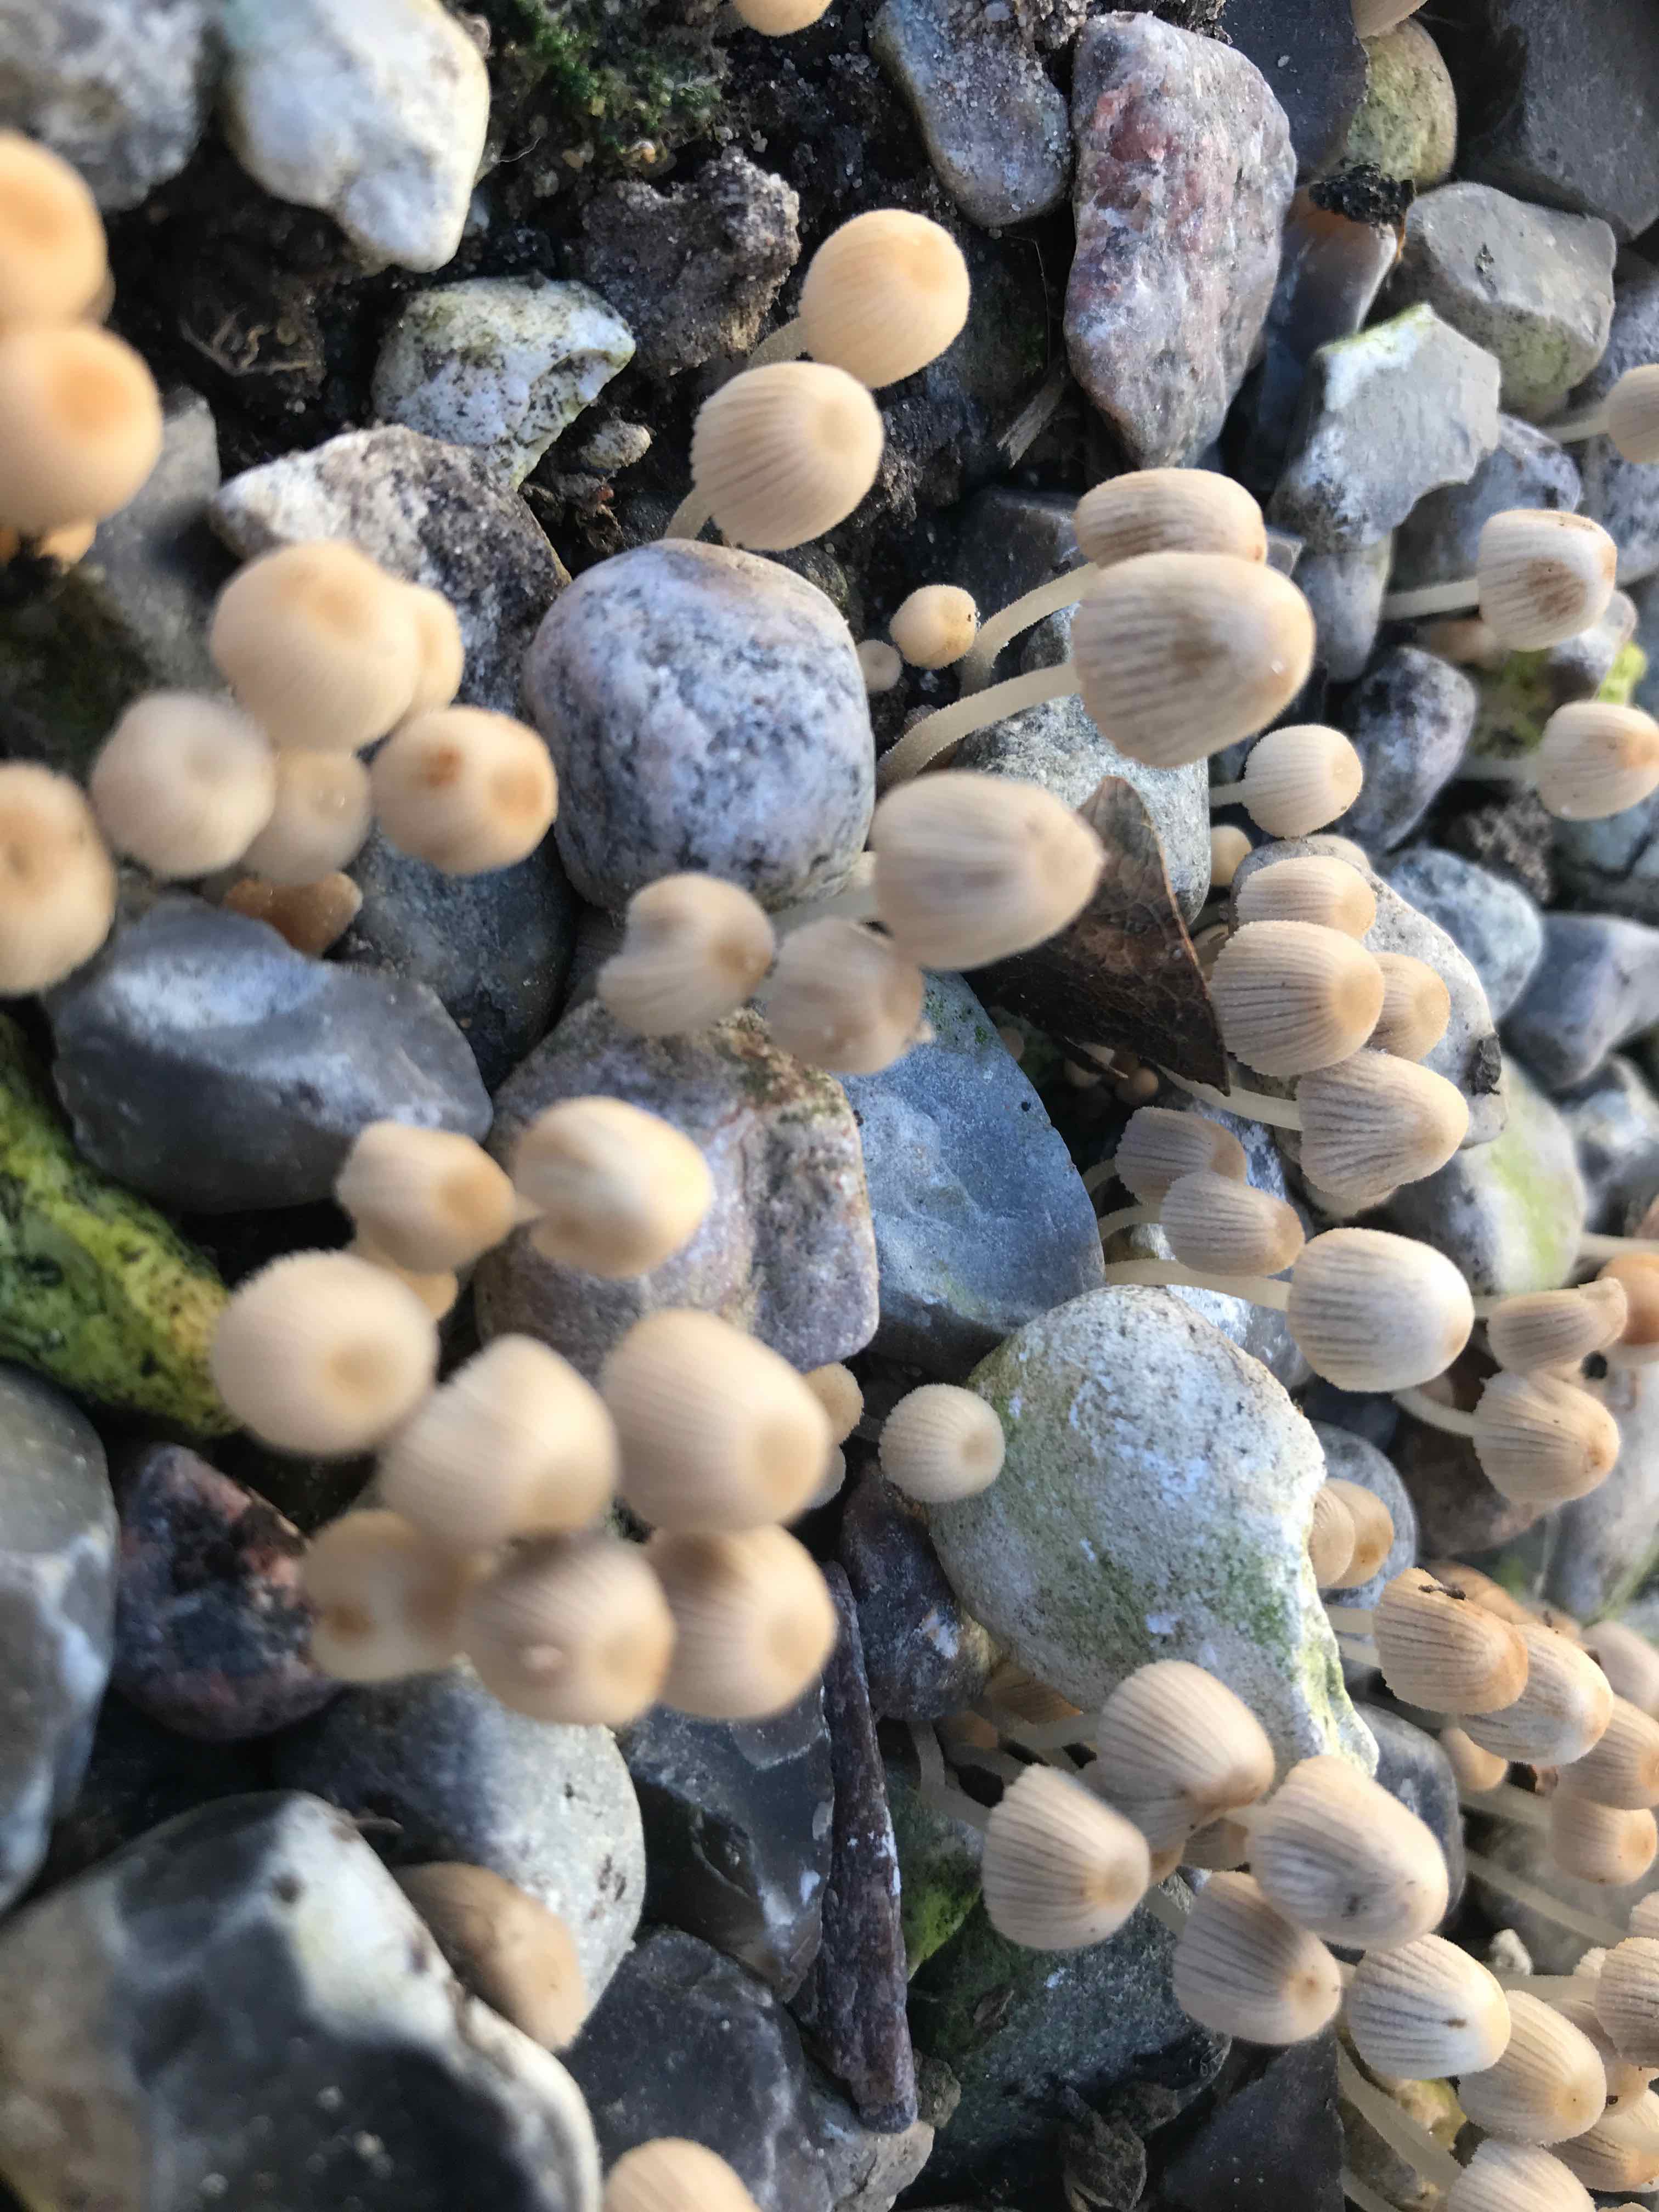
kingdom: Fungi
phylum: Basidiomycota
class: Agaricomycetes
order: Agaricales
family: Psathyrellaceae
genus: Coprinellus
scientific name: Coprinellus disseminatus
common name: bredsået blækhat
